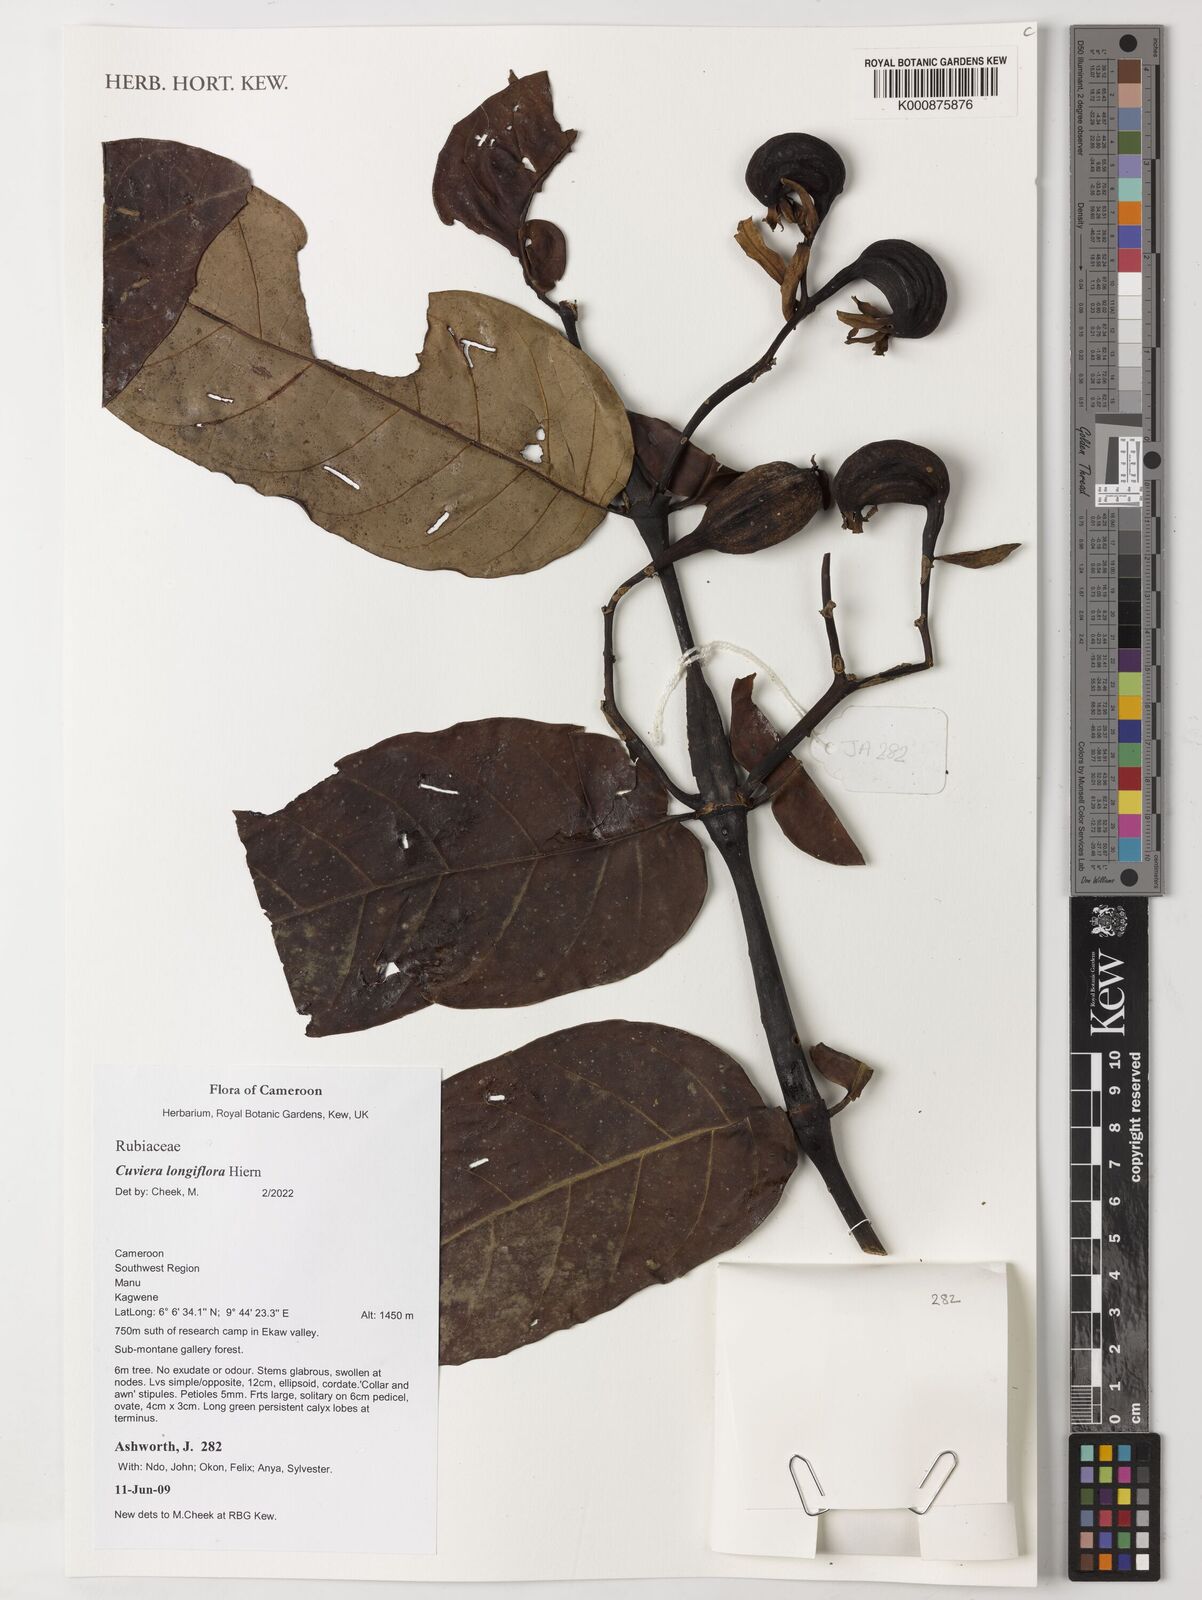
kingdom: Plantae
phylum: Tracheophyta
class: Magnoliopsida
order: Gentianales
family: Rubiaceae
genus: Cuviera
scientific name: Cuviera longiflora
